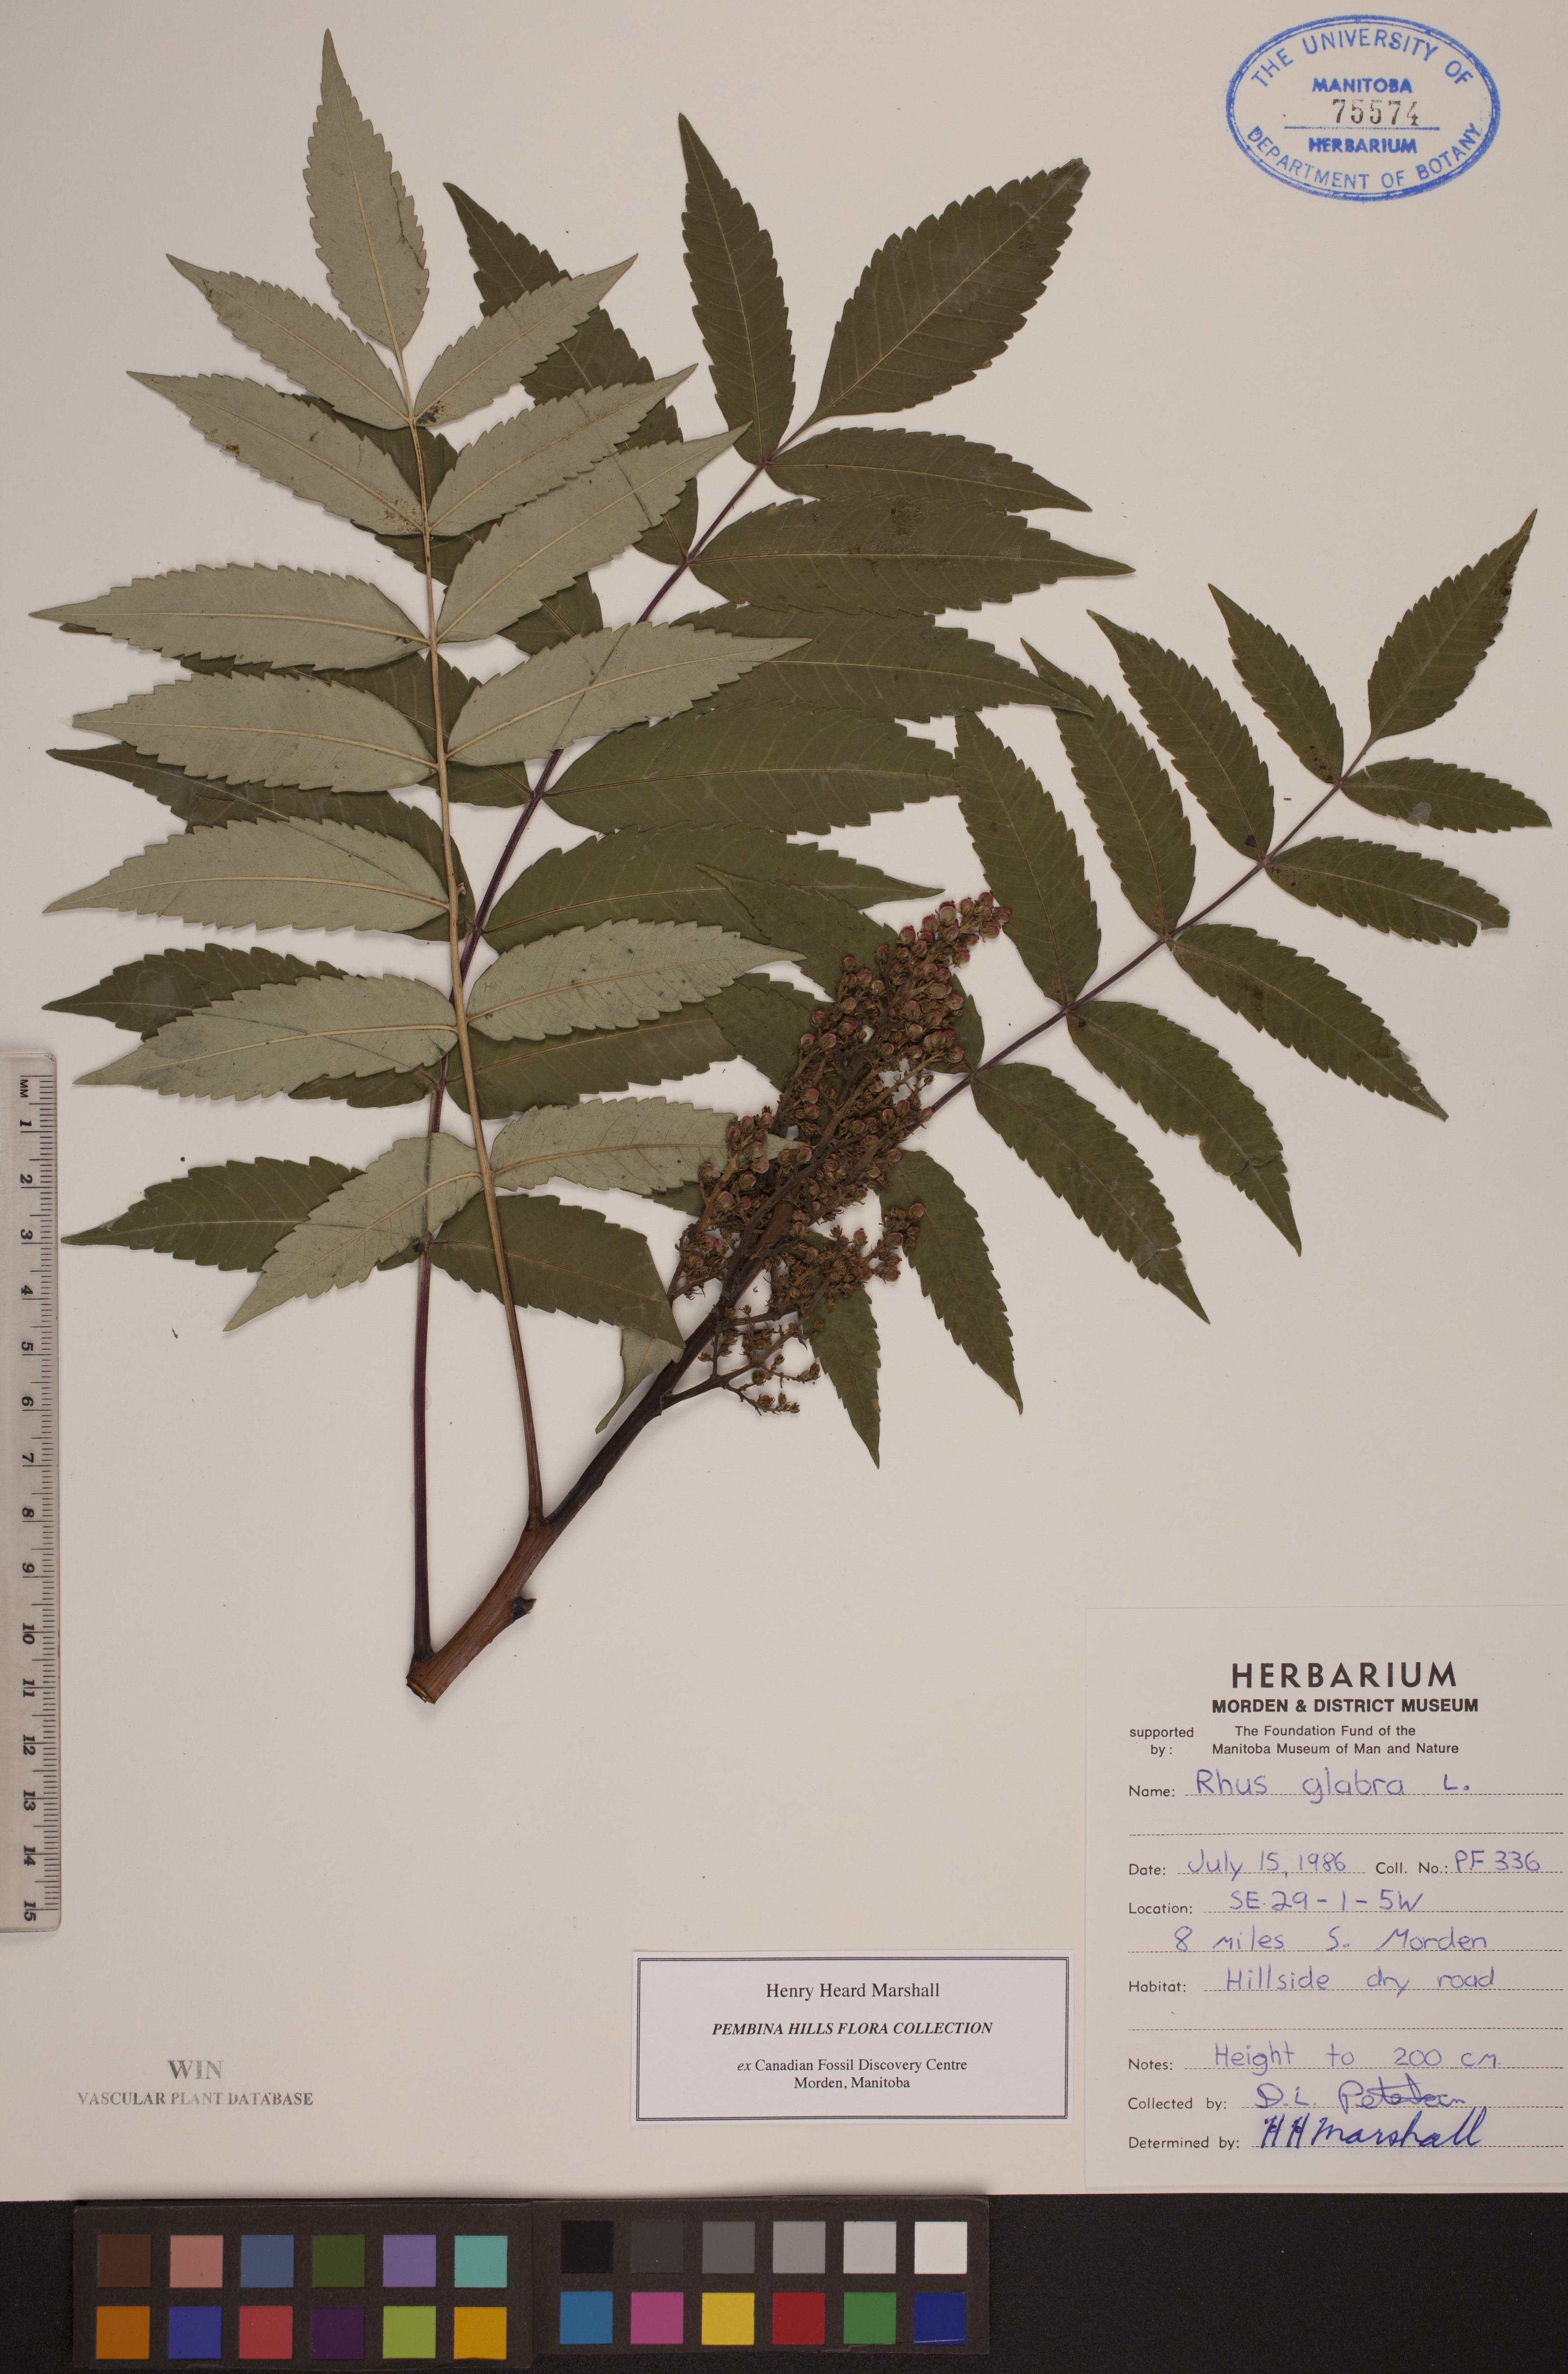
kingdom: Plantae
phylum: Tracheophyta
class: Magnoliopsida
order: Sapindales
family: Anacardiaceae
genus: Rhus
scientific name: Rhus glabra
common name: Scarlet sumac
